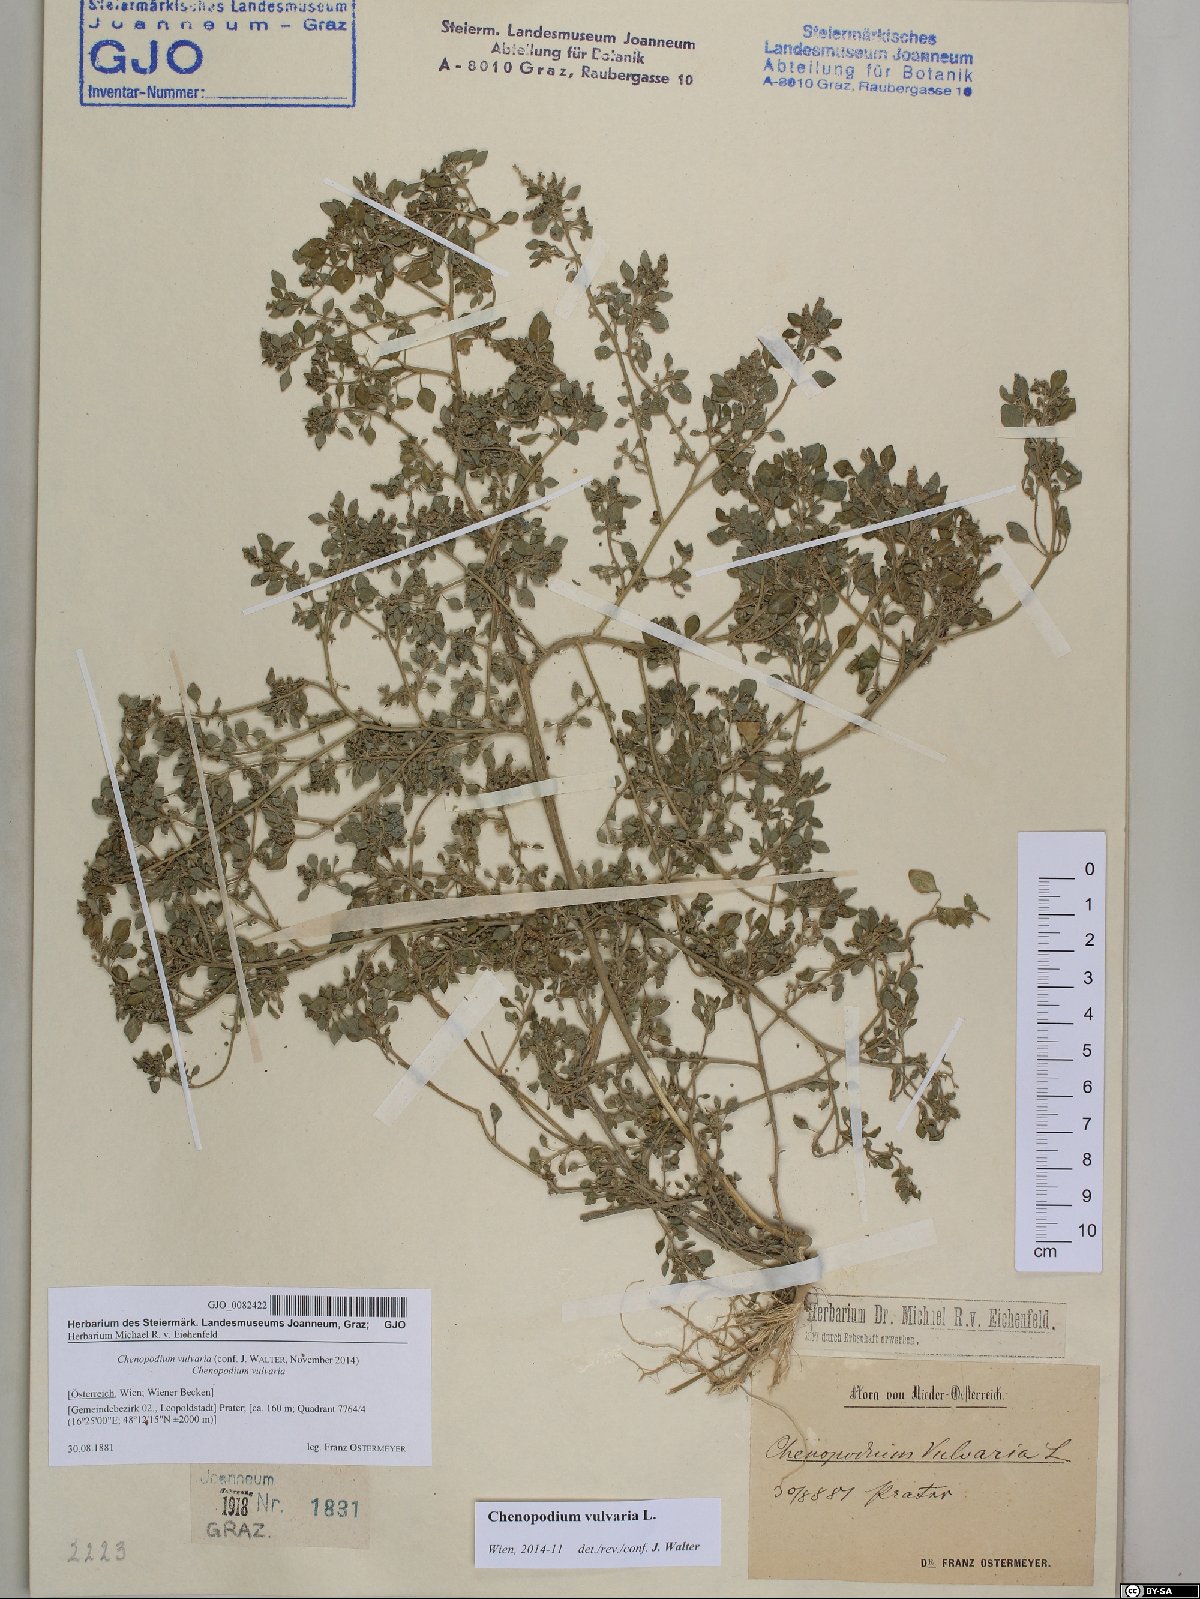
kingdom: Plantae
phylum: Tracheophyta
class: Magnoliopsida
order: Caryophyllales
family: Amaranthaceae
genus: Chenopodium
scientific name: Chenopodium vulvaria
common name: Stinking goosefoot
